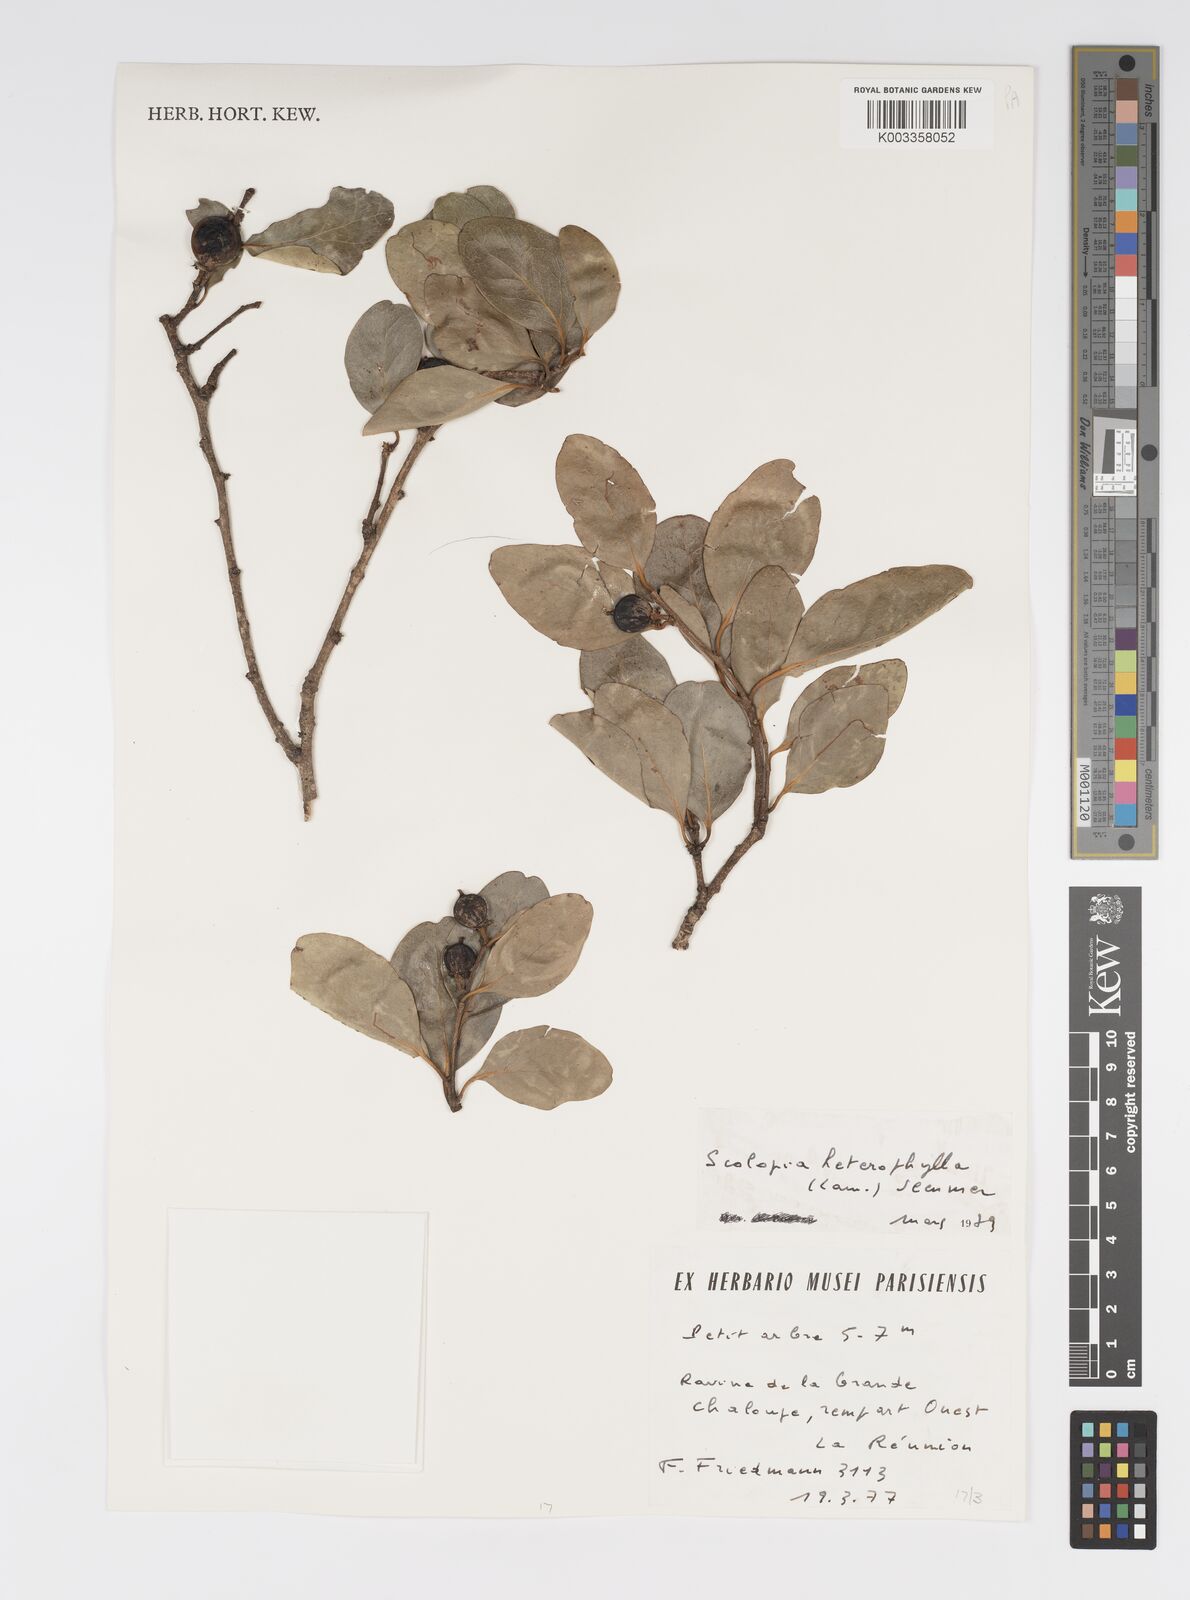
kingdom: Plantae
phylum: Tracheophyta
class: Magnoliopsida
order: Malpighiales
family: Salicaceae
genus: Scolopia
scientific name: Scolopia heterophylla
